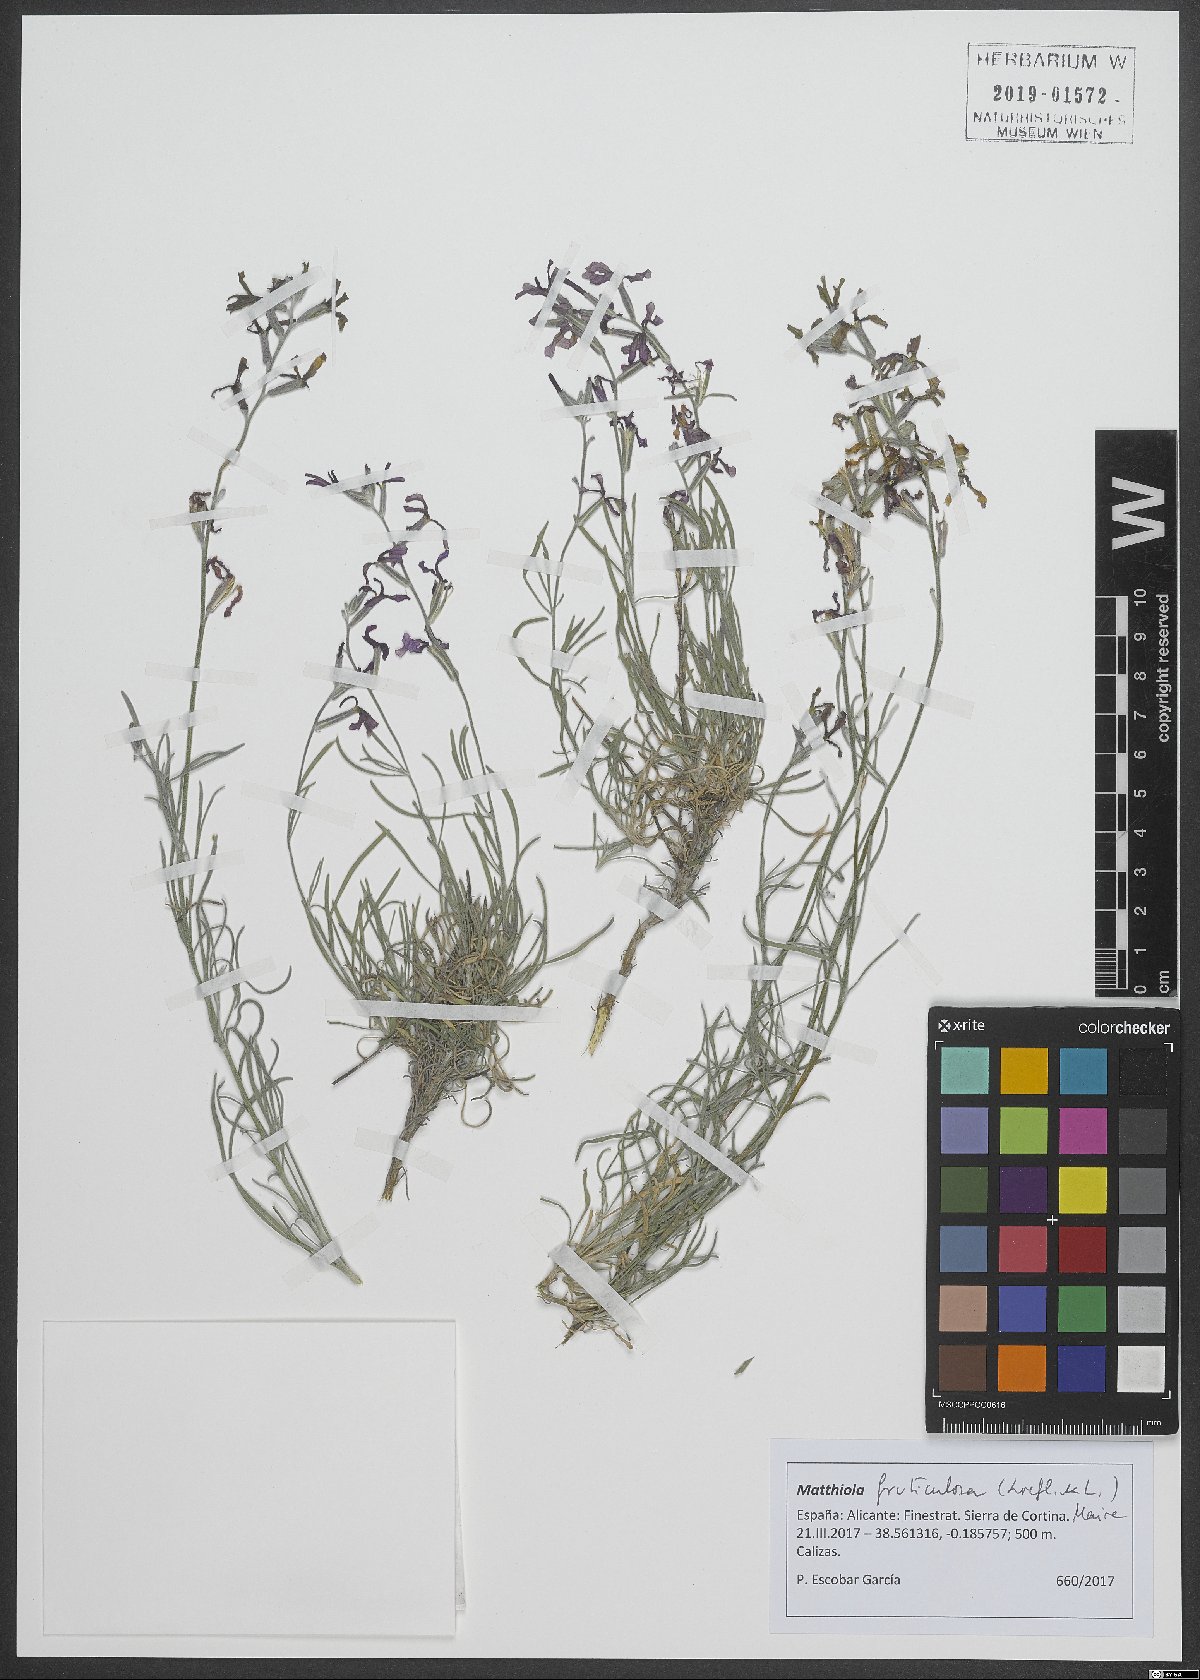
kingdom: Plantae
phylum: Tracheophyta
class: Magnoliopsida
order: Brassicales
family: Brassicaceae
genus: Matthiola
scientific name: Matthiola fruticulosa
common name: Sad stock
